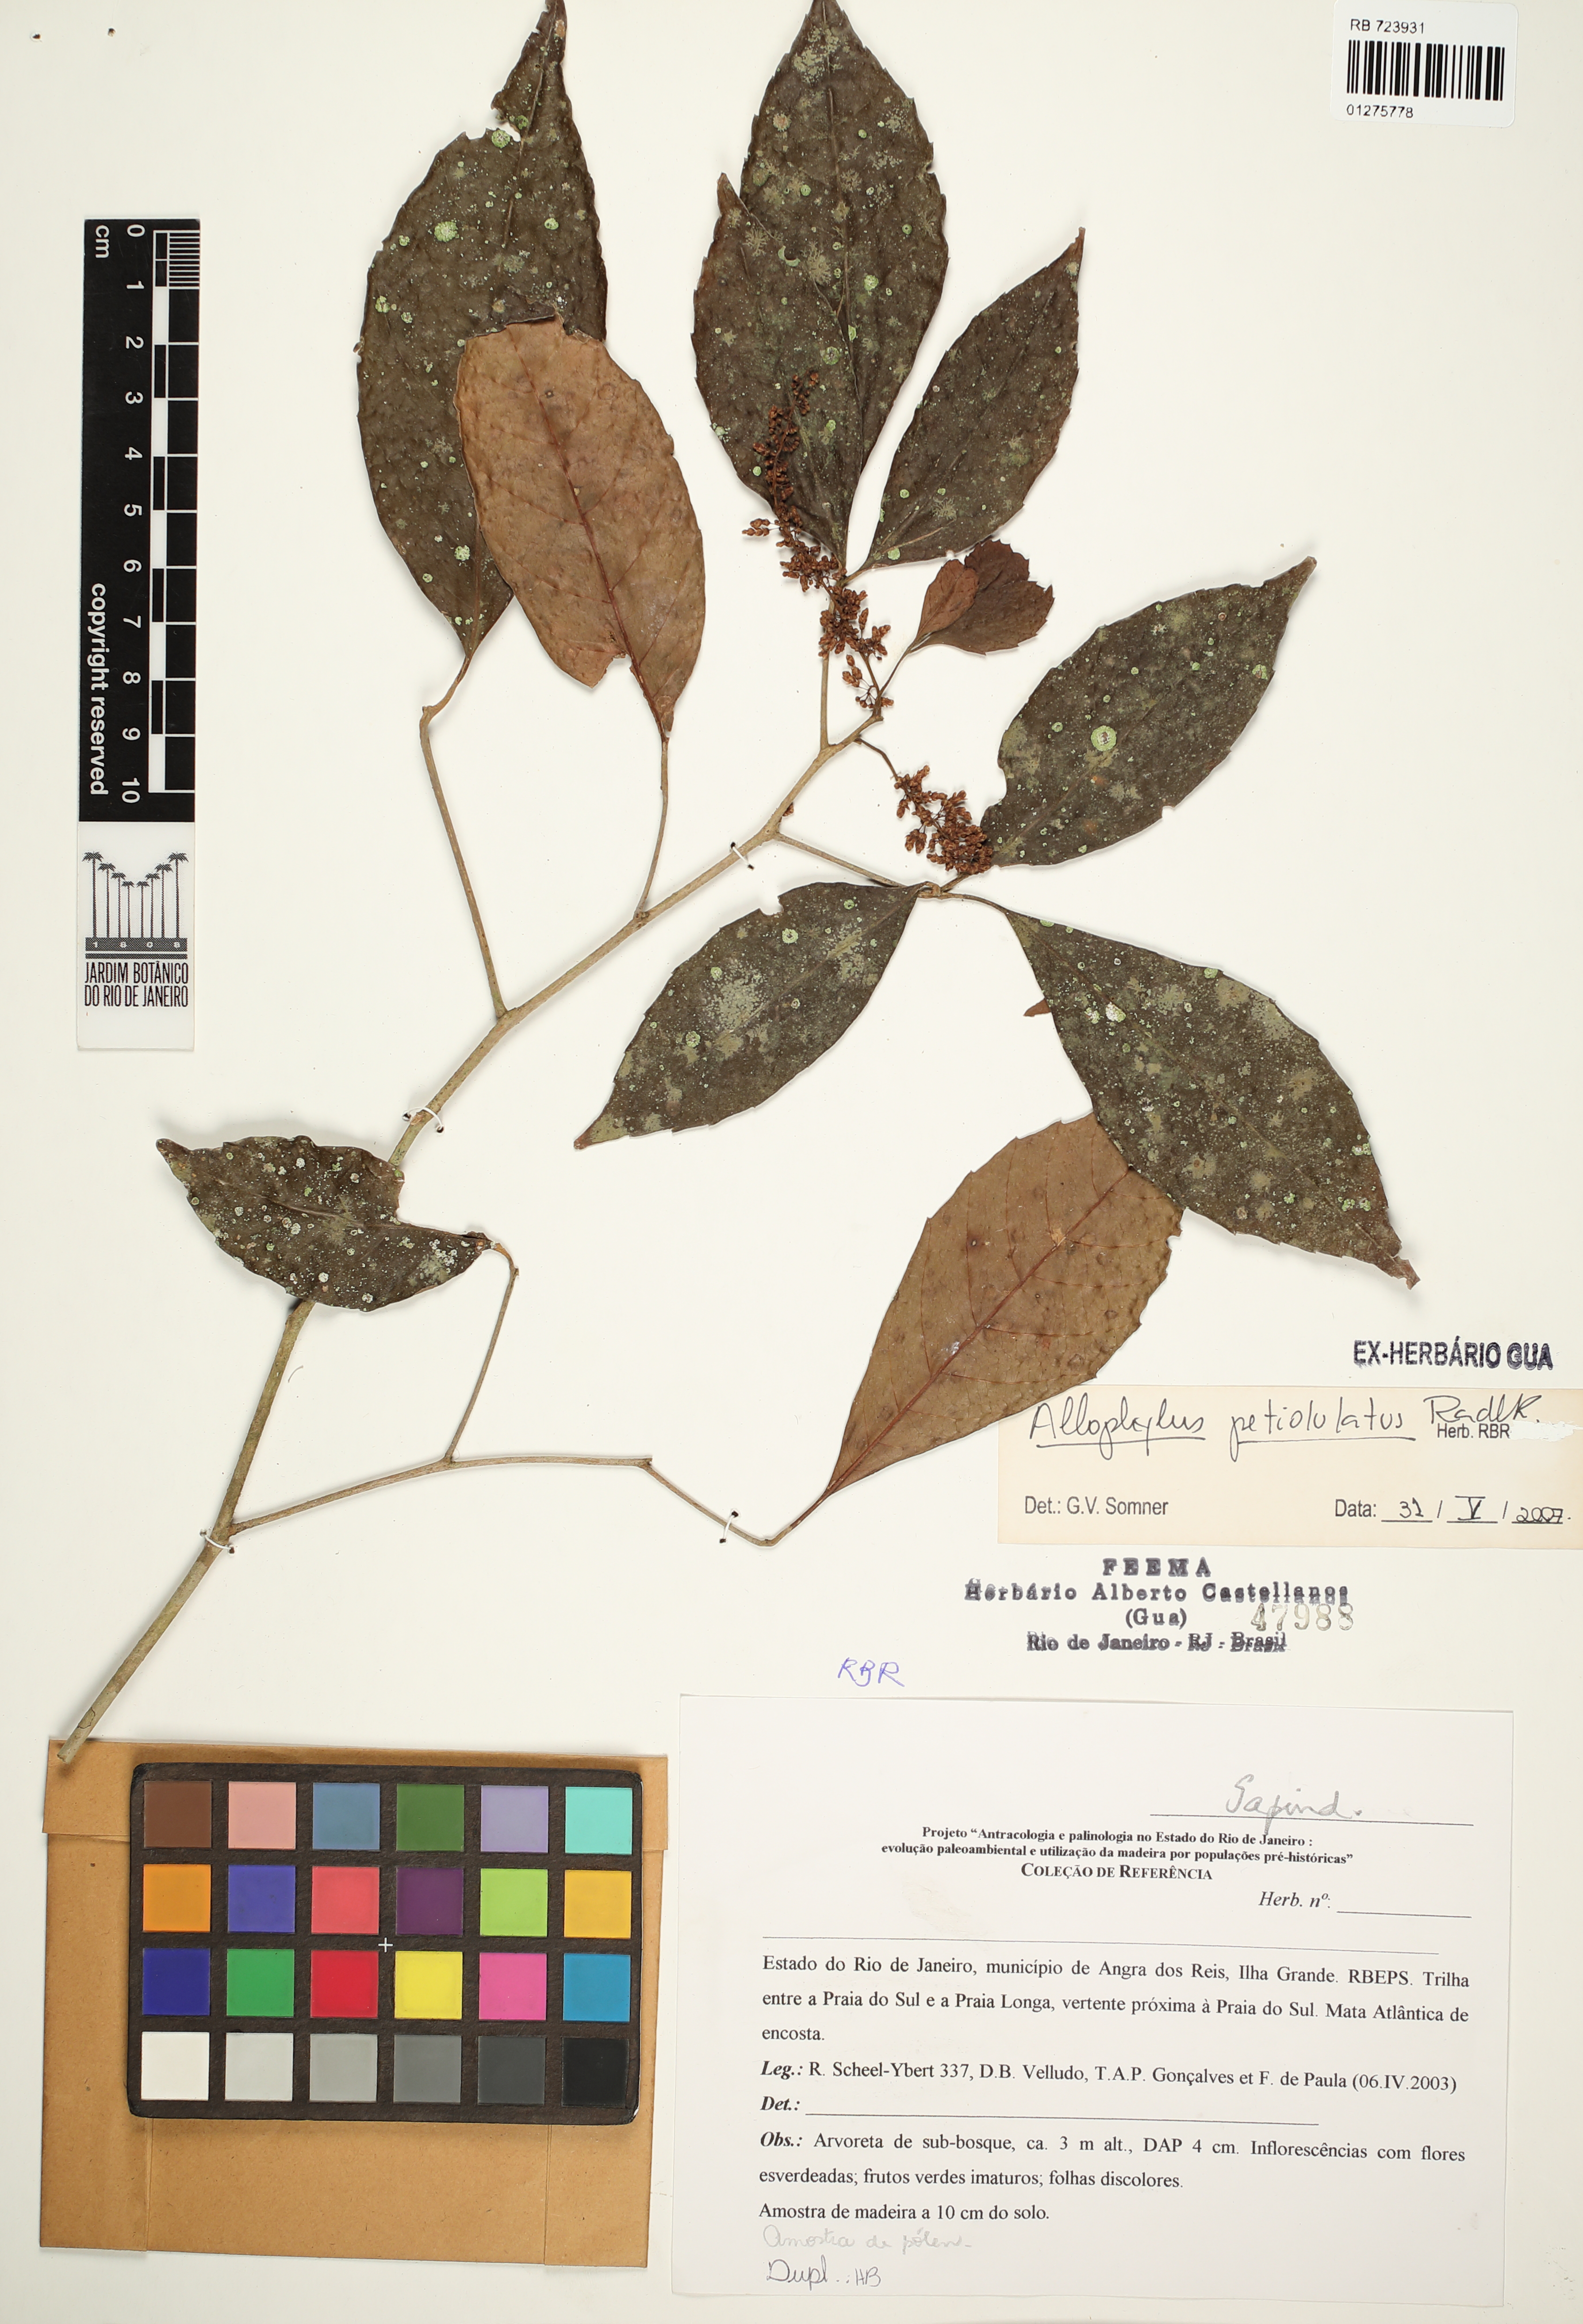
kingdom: Plantae
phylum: Tracheophyta
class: Magnoliopsida
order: Sapindales
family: Sapindaceae
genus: Allophylus
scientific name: Allophylus petiolulatus
